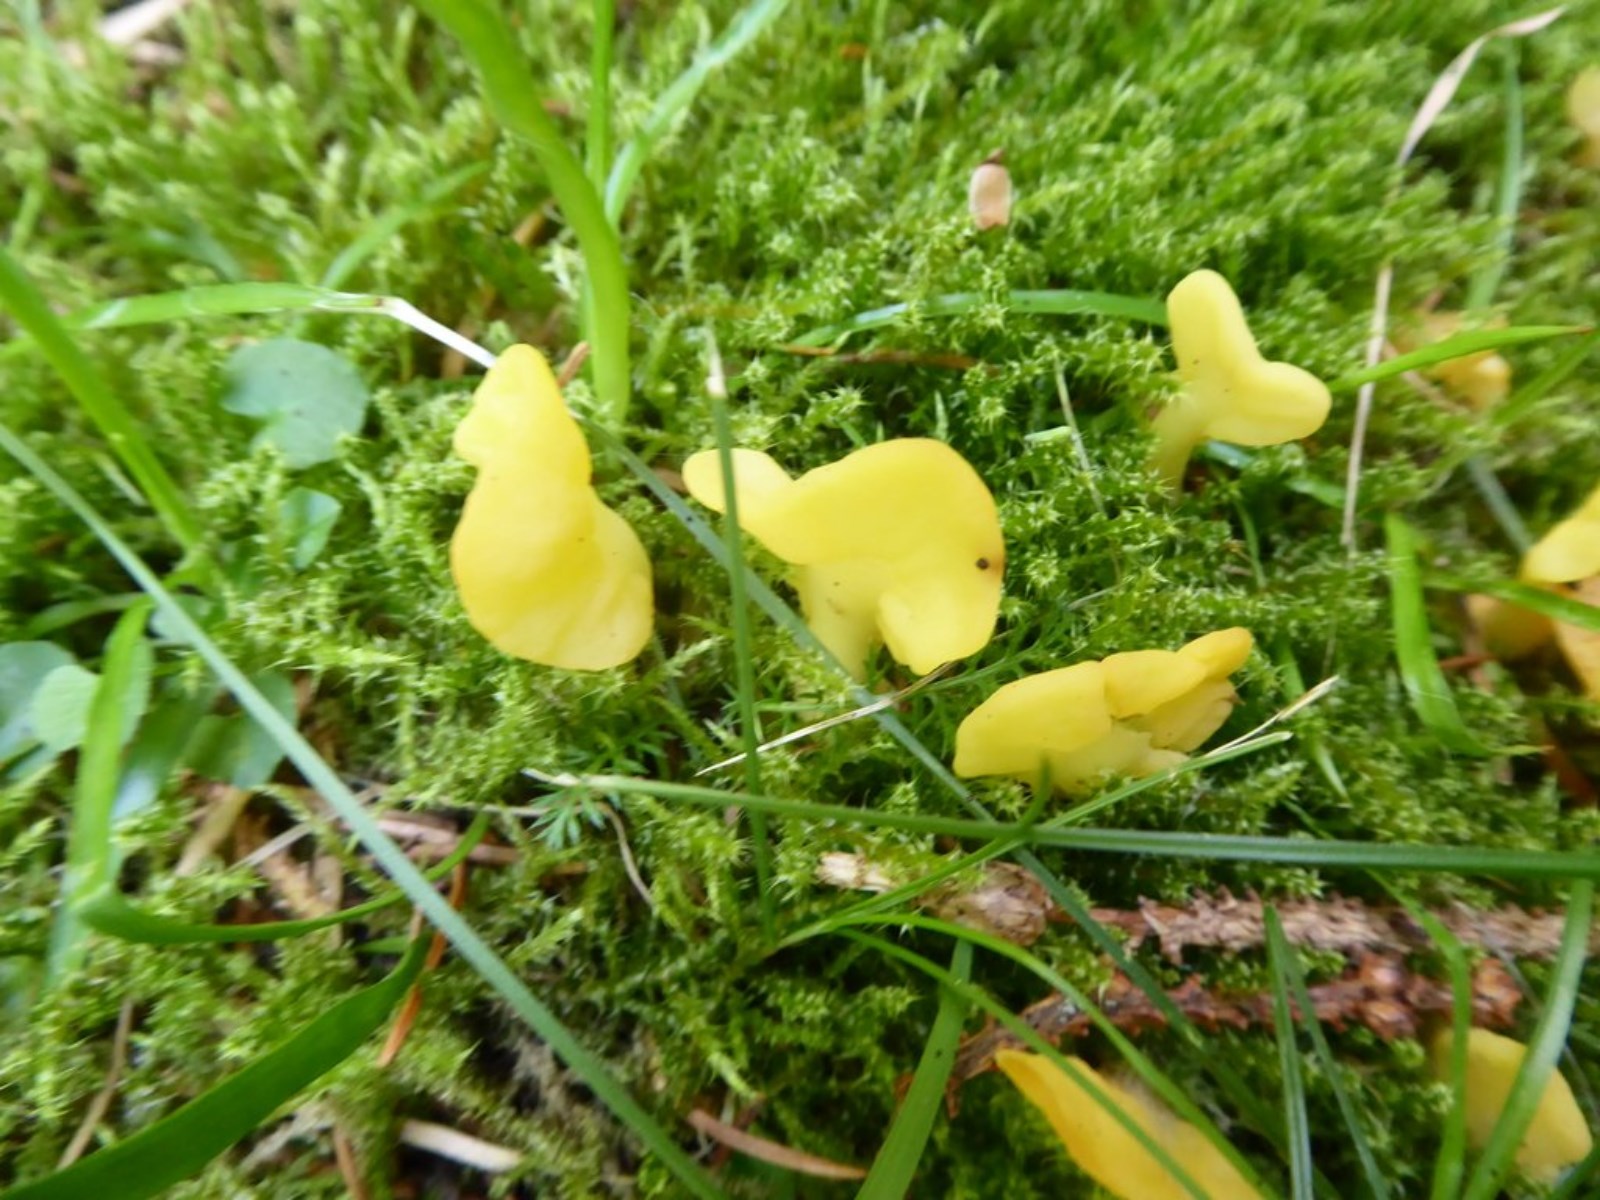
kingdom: Fungi
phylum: Ascomycota
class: Leotiomycetes
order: Rhytismatales
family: Cudoniaceae
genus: Spathularia
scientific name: Spathularia flavida
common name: gul spatelsvamp
